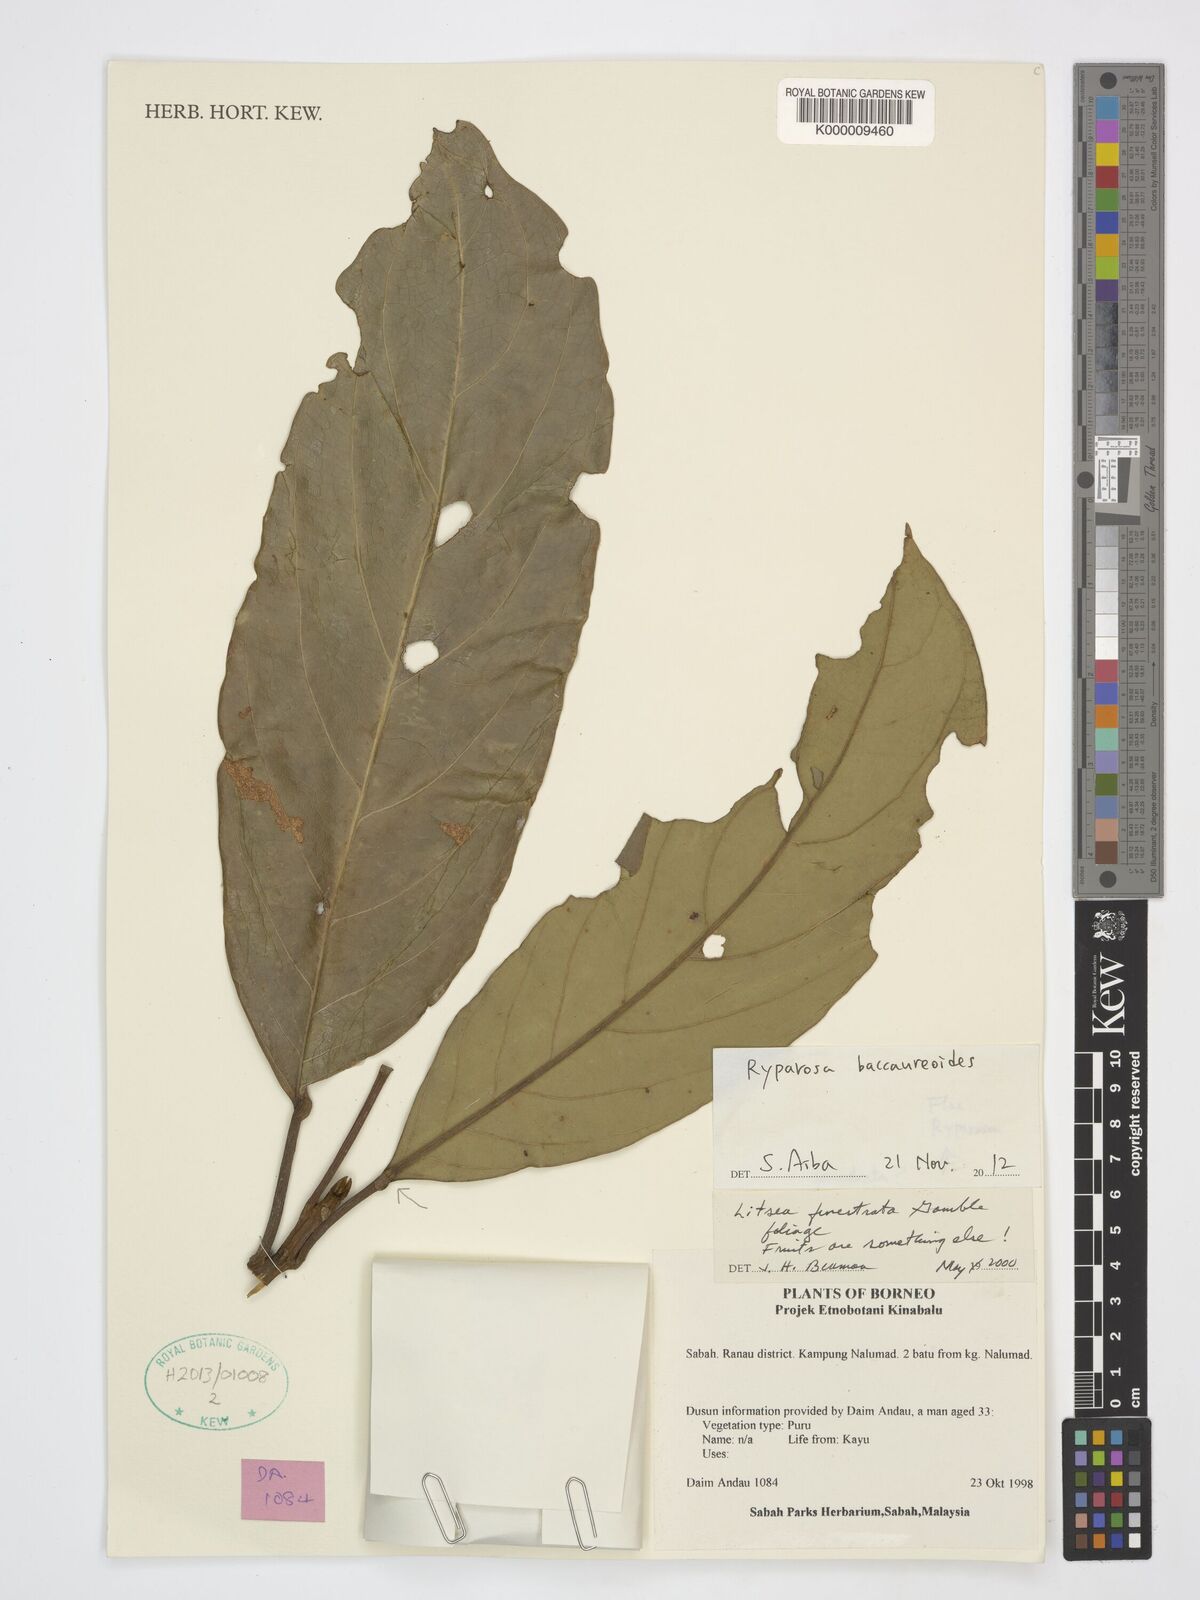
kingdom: Plantae
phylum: Tracheophyta
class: Magnoliopsida
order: Malpighiales
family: Achariaceae
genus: Ryparosa
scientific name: Ryparosa baccaureoides
